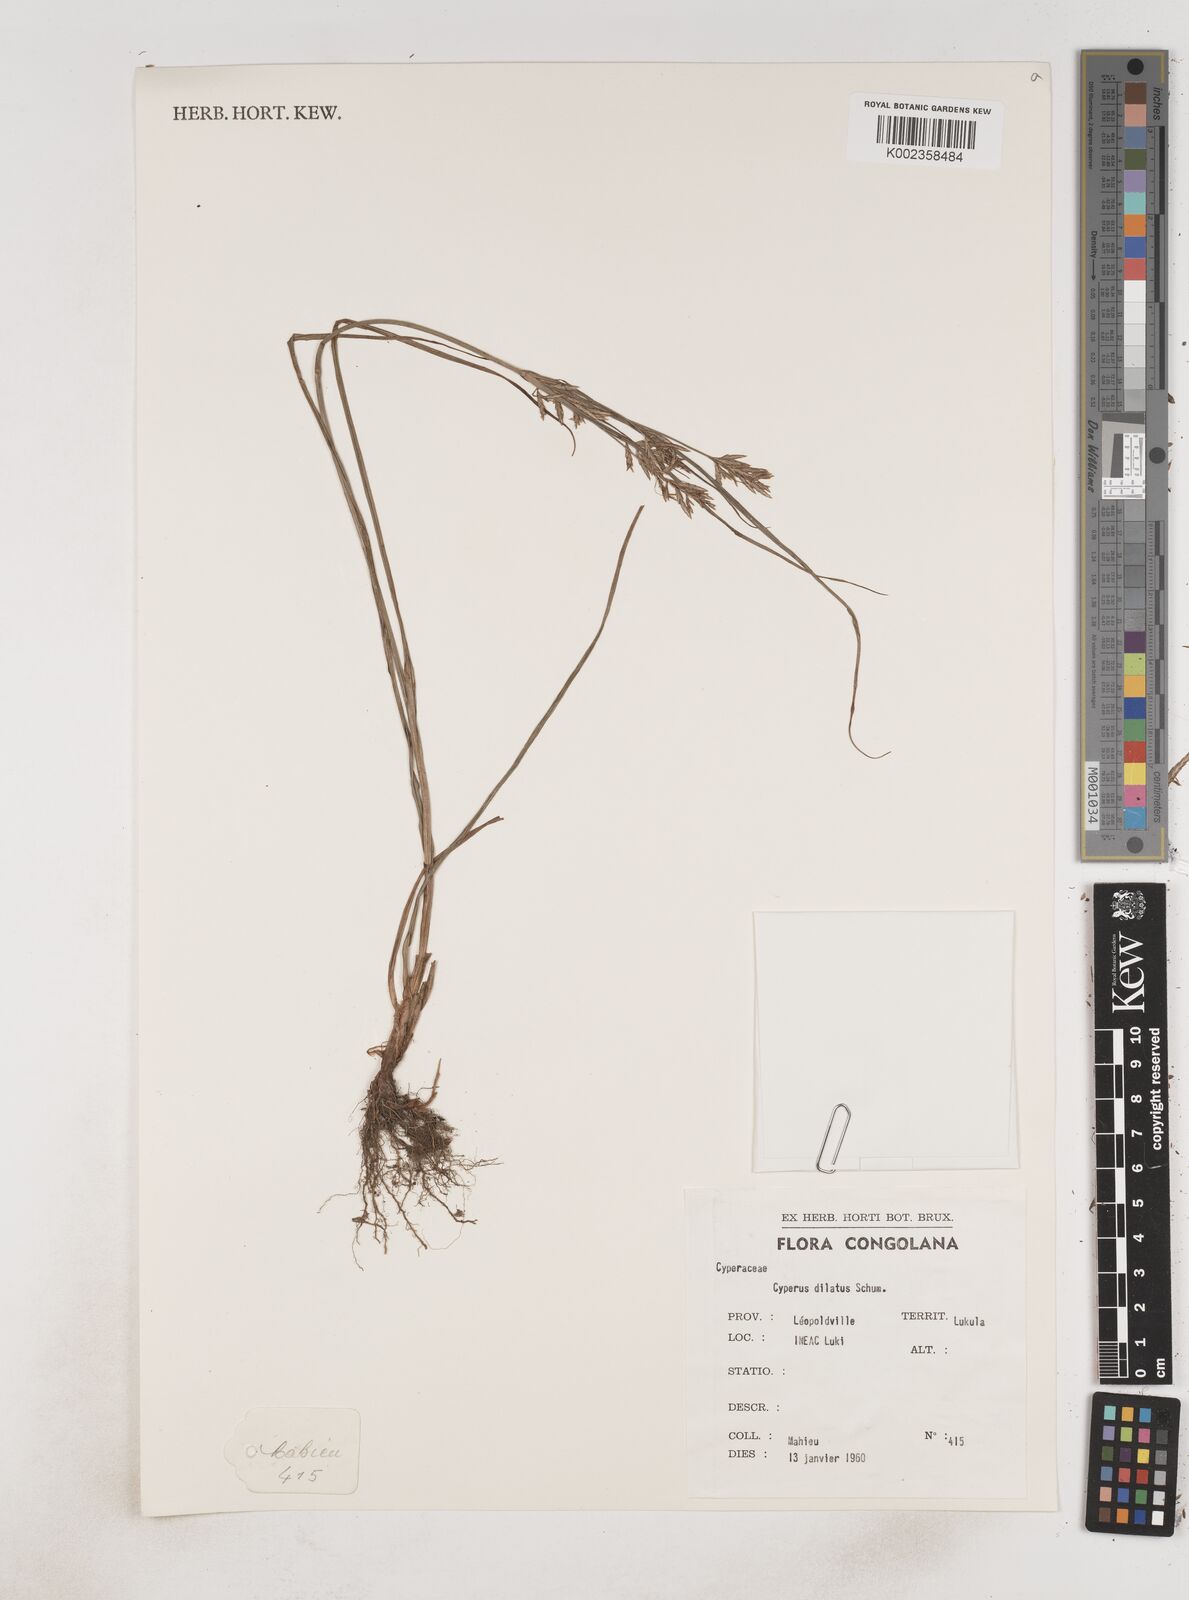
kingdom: Plantae
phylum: Tracheophyta
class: Liliopsida
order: Poales
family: Cyperaceae
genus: Cyperus
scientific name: Cyperus dilatatus
